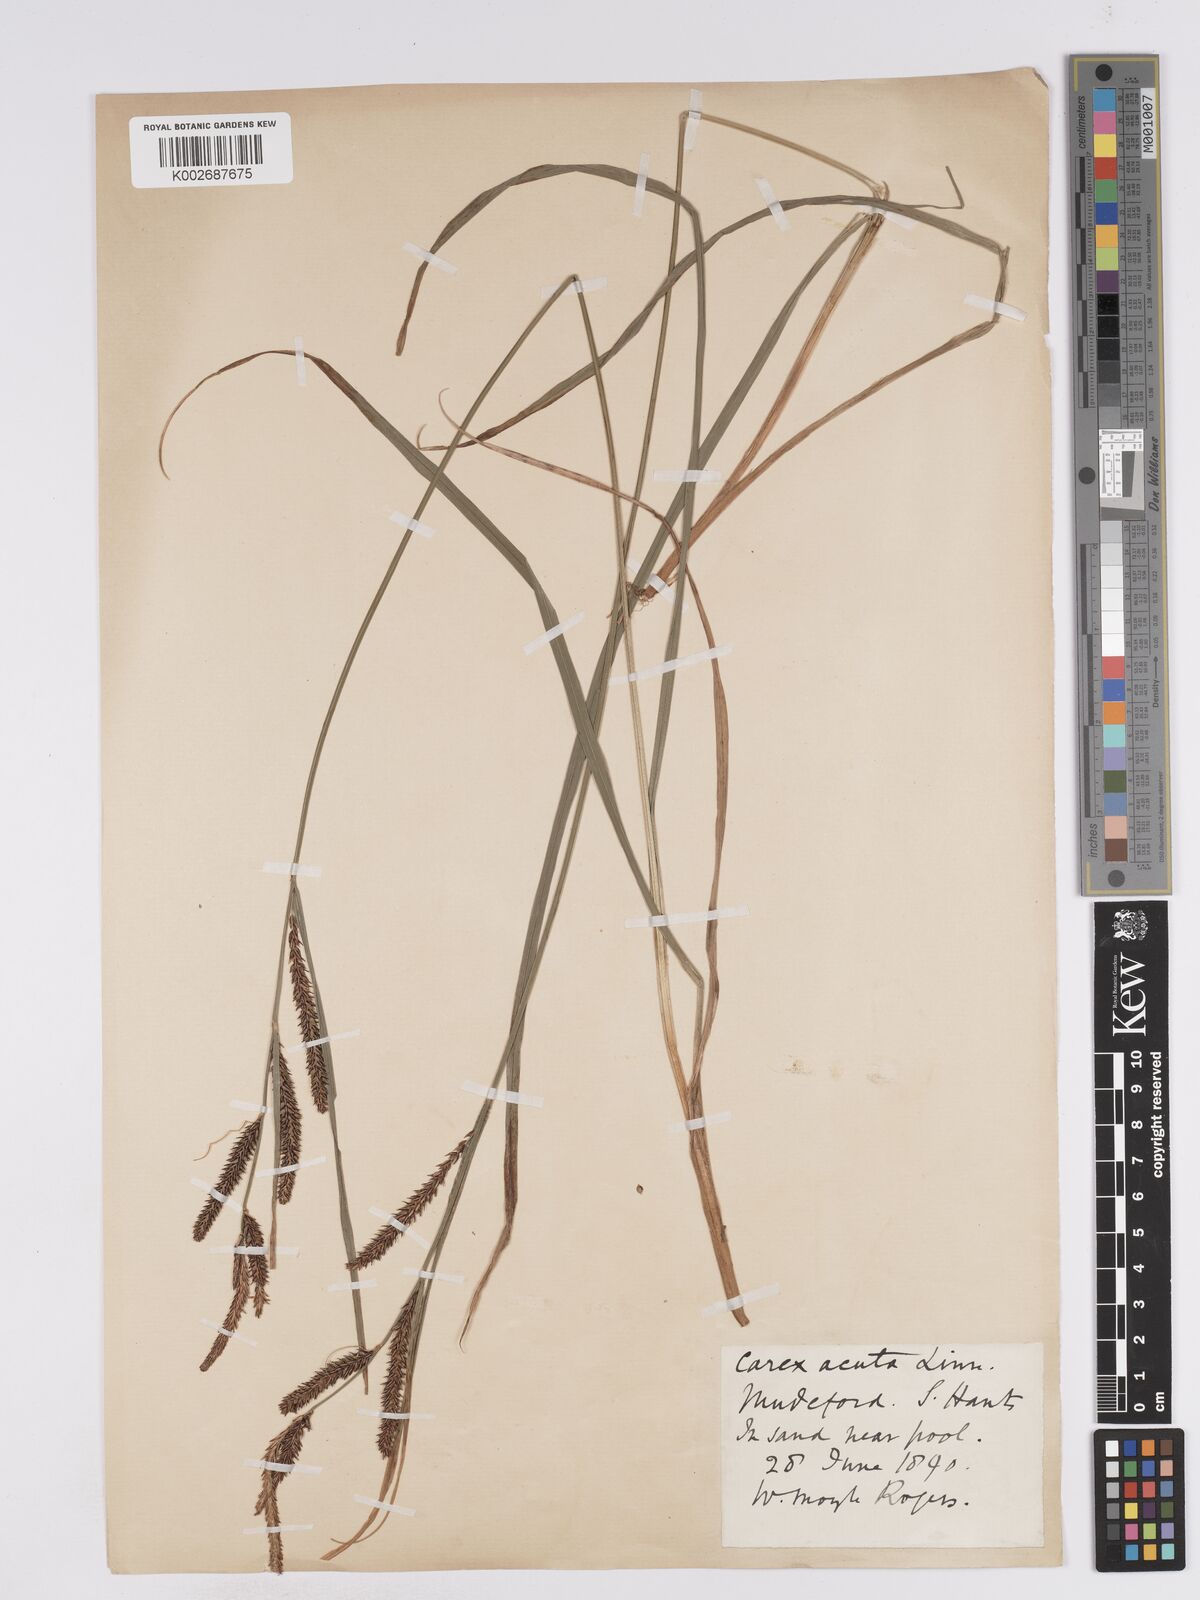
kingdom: Plantae
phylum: Tracheophyta
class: Liliopsida
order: Poales
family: Cyperaceae
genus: Carex
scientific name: Carex acuta
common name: Slender tufted-sedge
